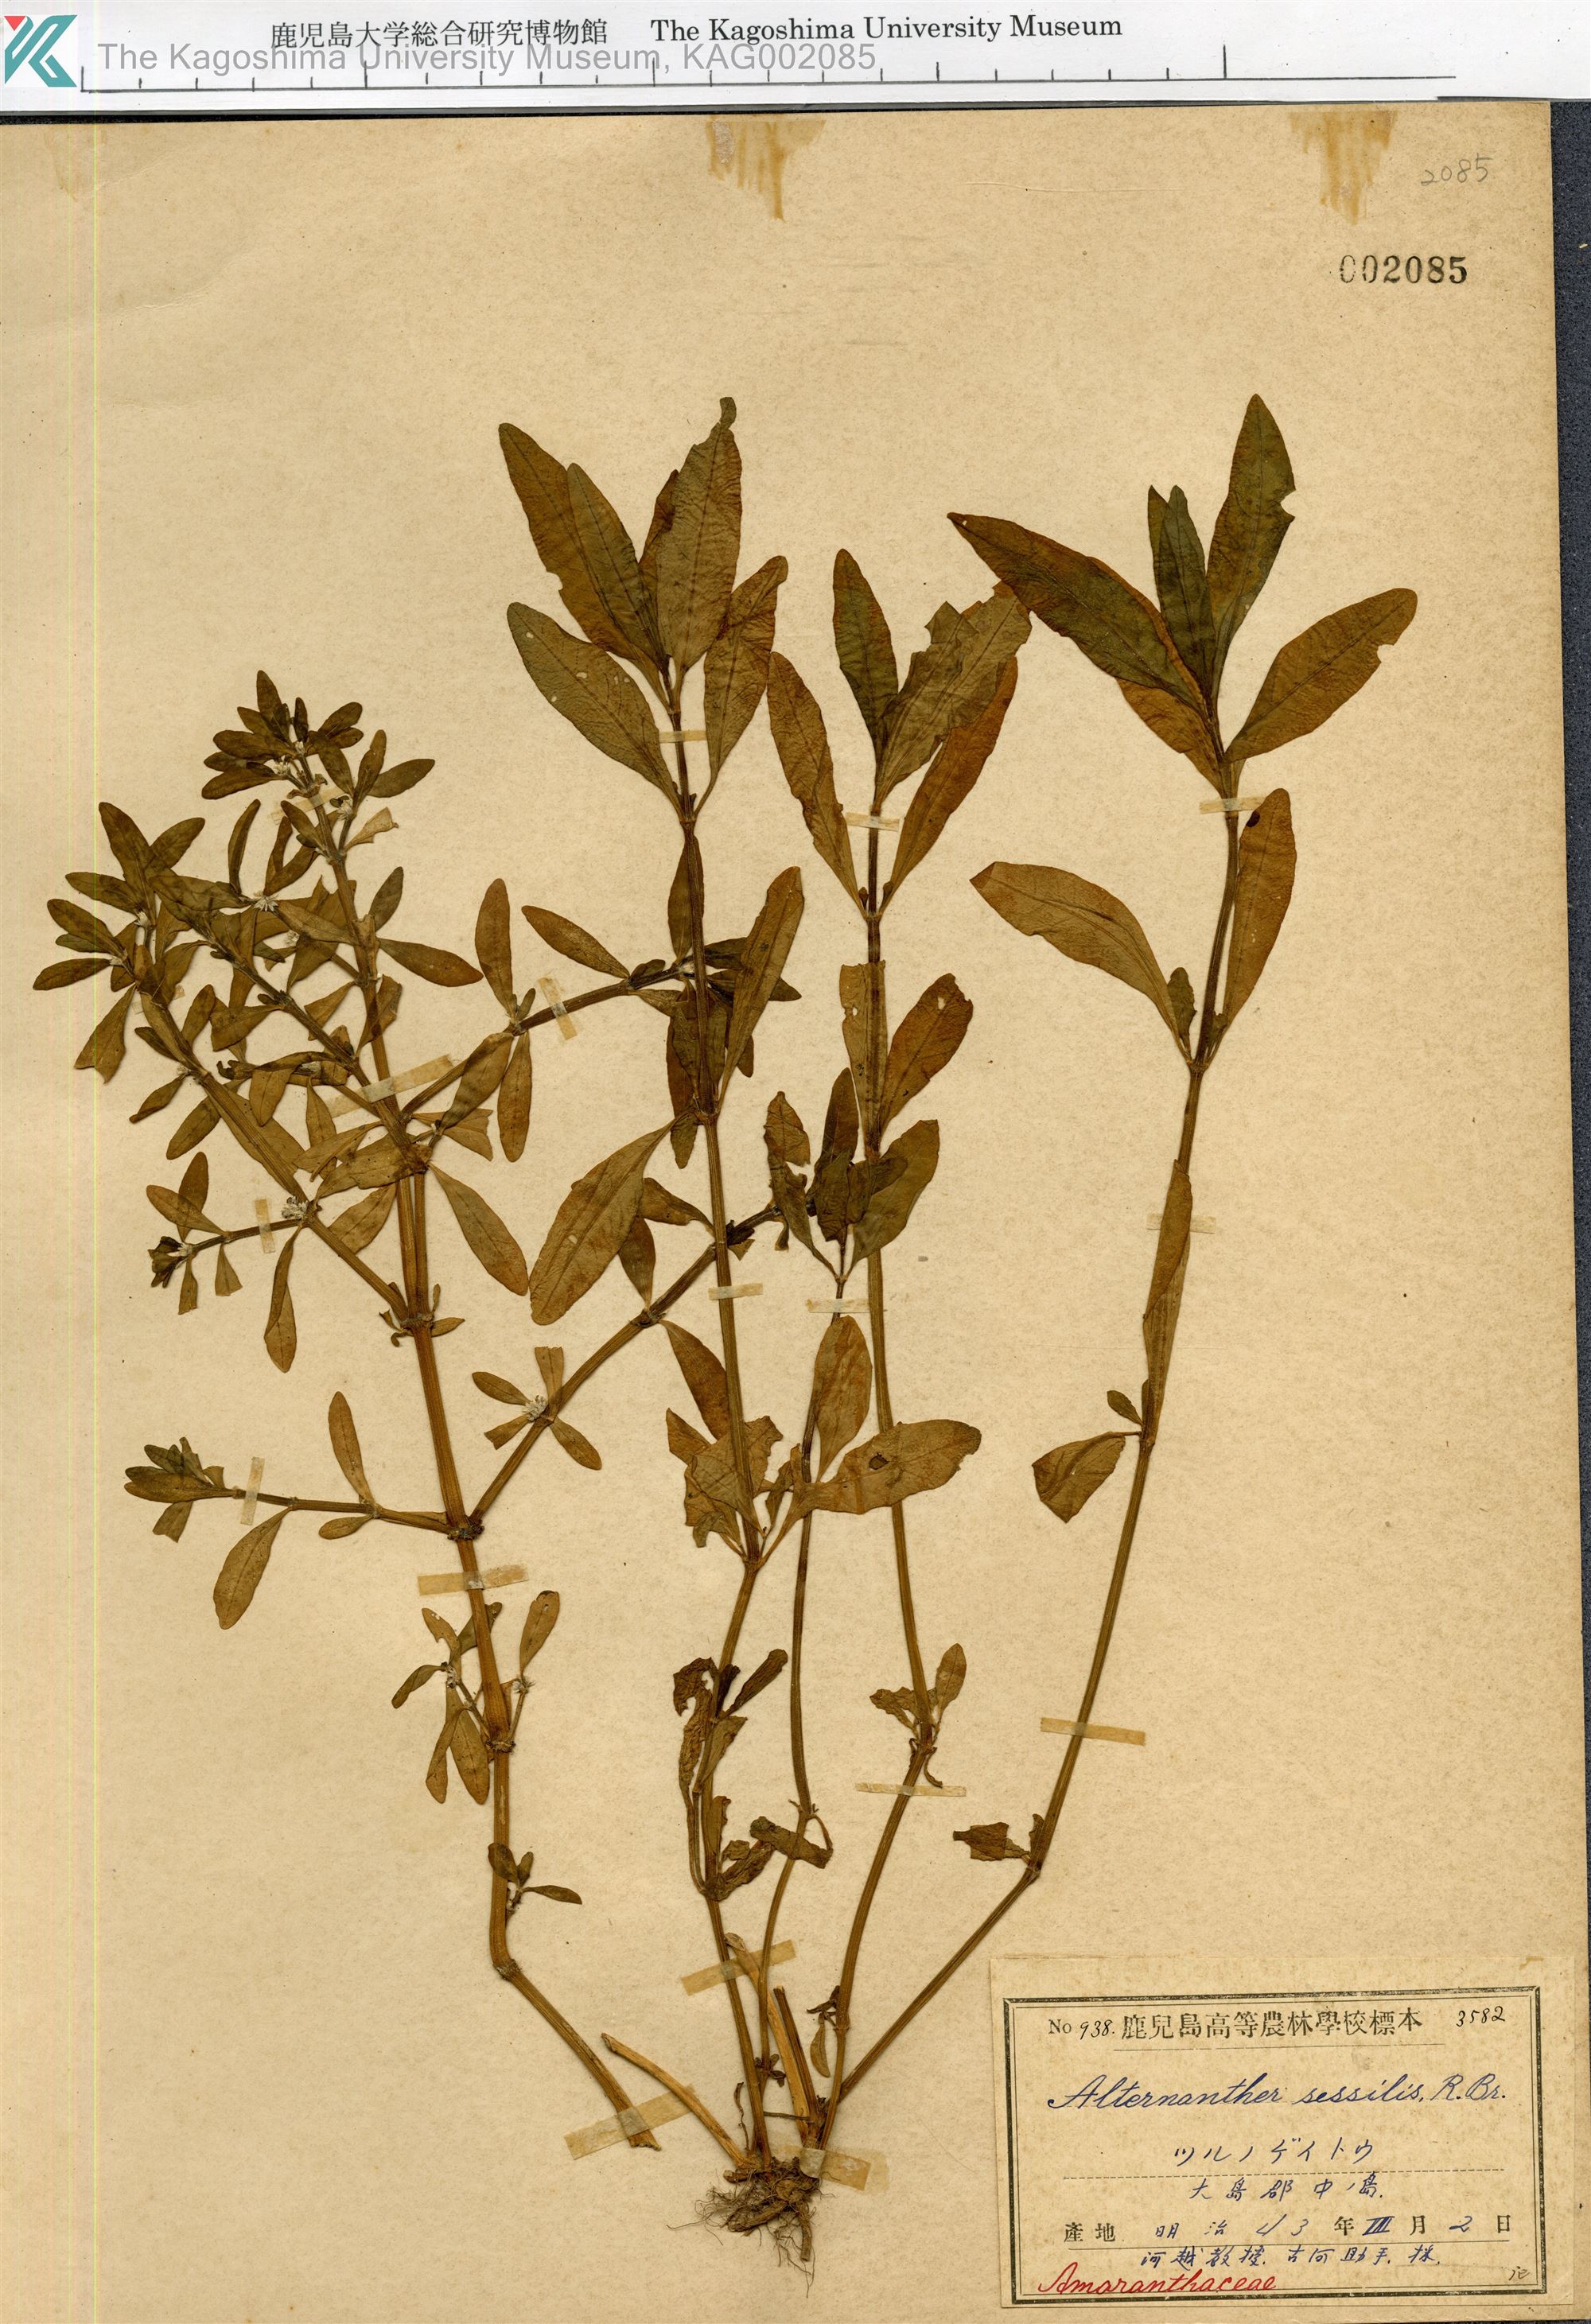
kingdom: Plantae
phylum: Tracheophyta
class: Magnoliopsida
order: Caryophyllales
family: Amaranthaceae
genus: Alternanthera
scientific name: Alternanthera sessilis
